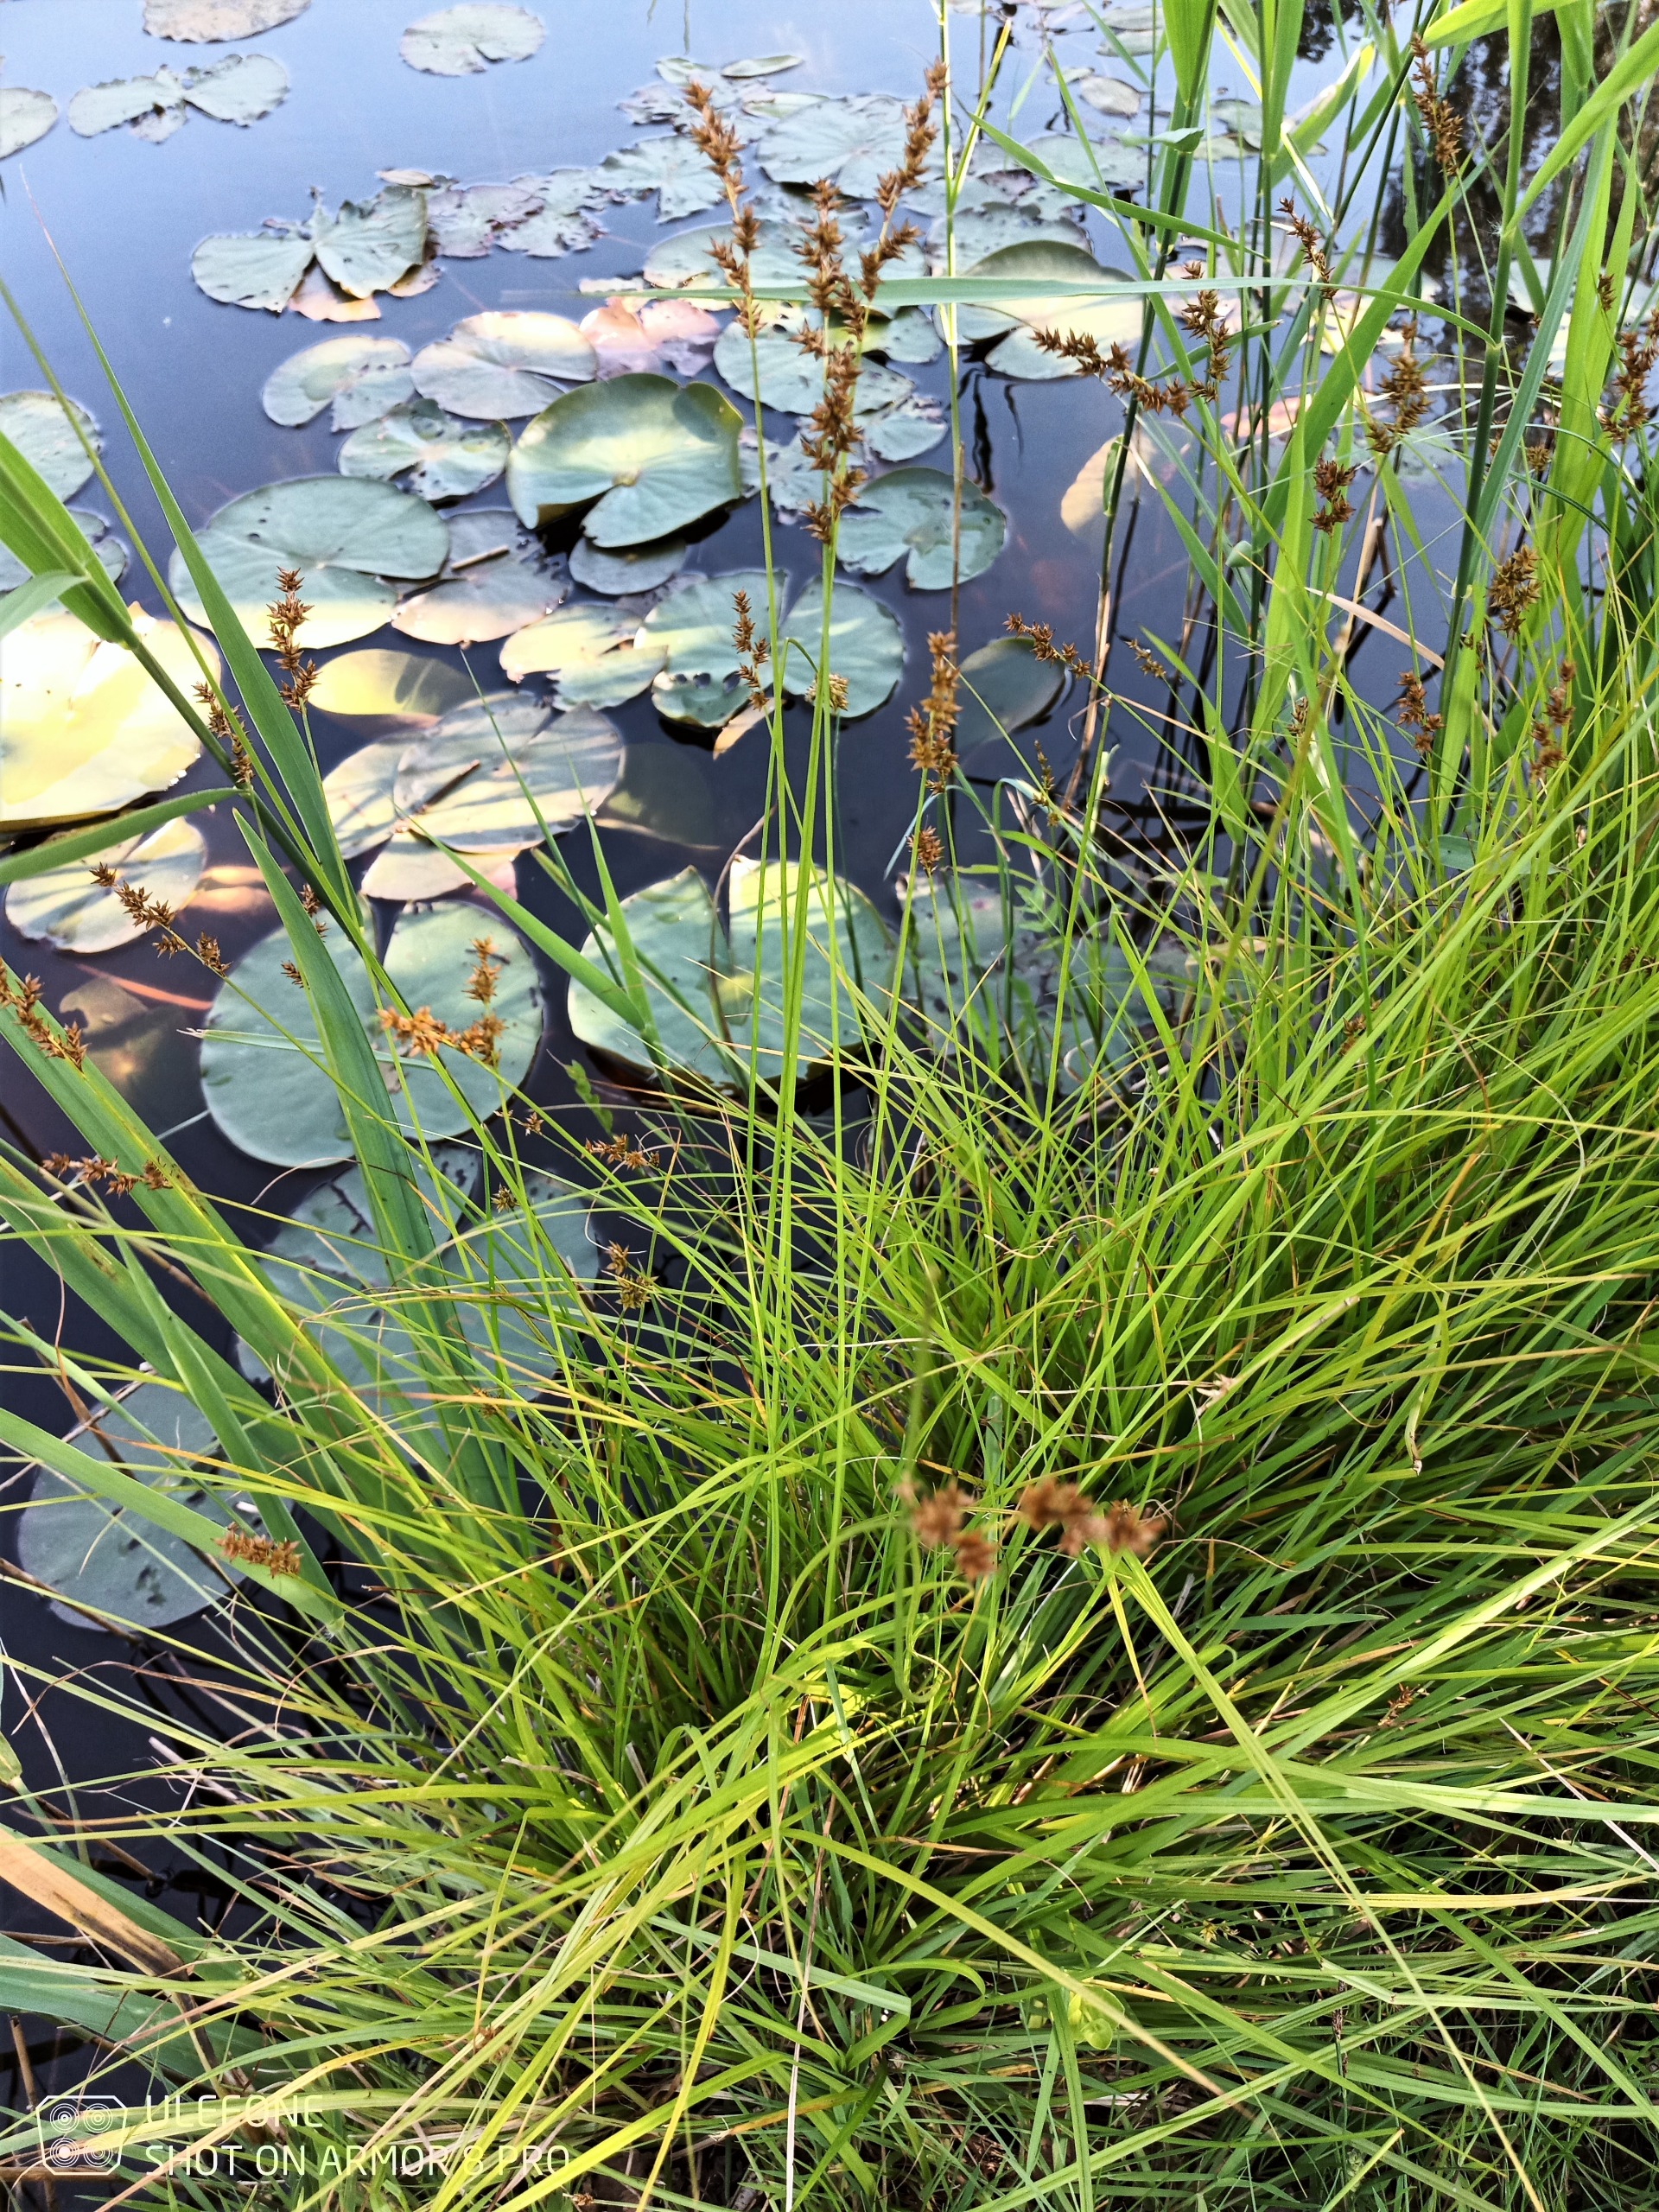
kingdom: Plantae
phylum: Tracheophyta
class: Liliopsida
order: Poales
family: Cyperaceae
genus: Carex
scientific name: Carex elongata
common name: Forlænget star
